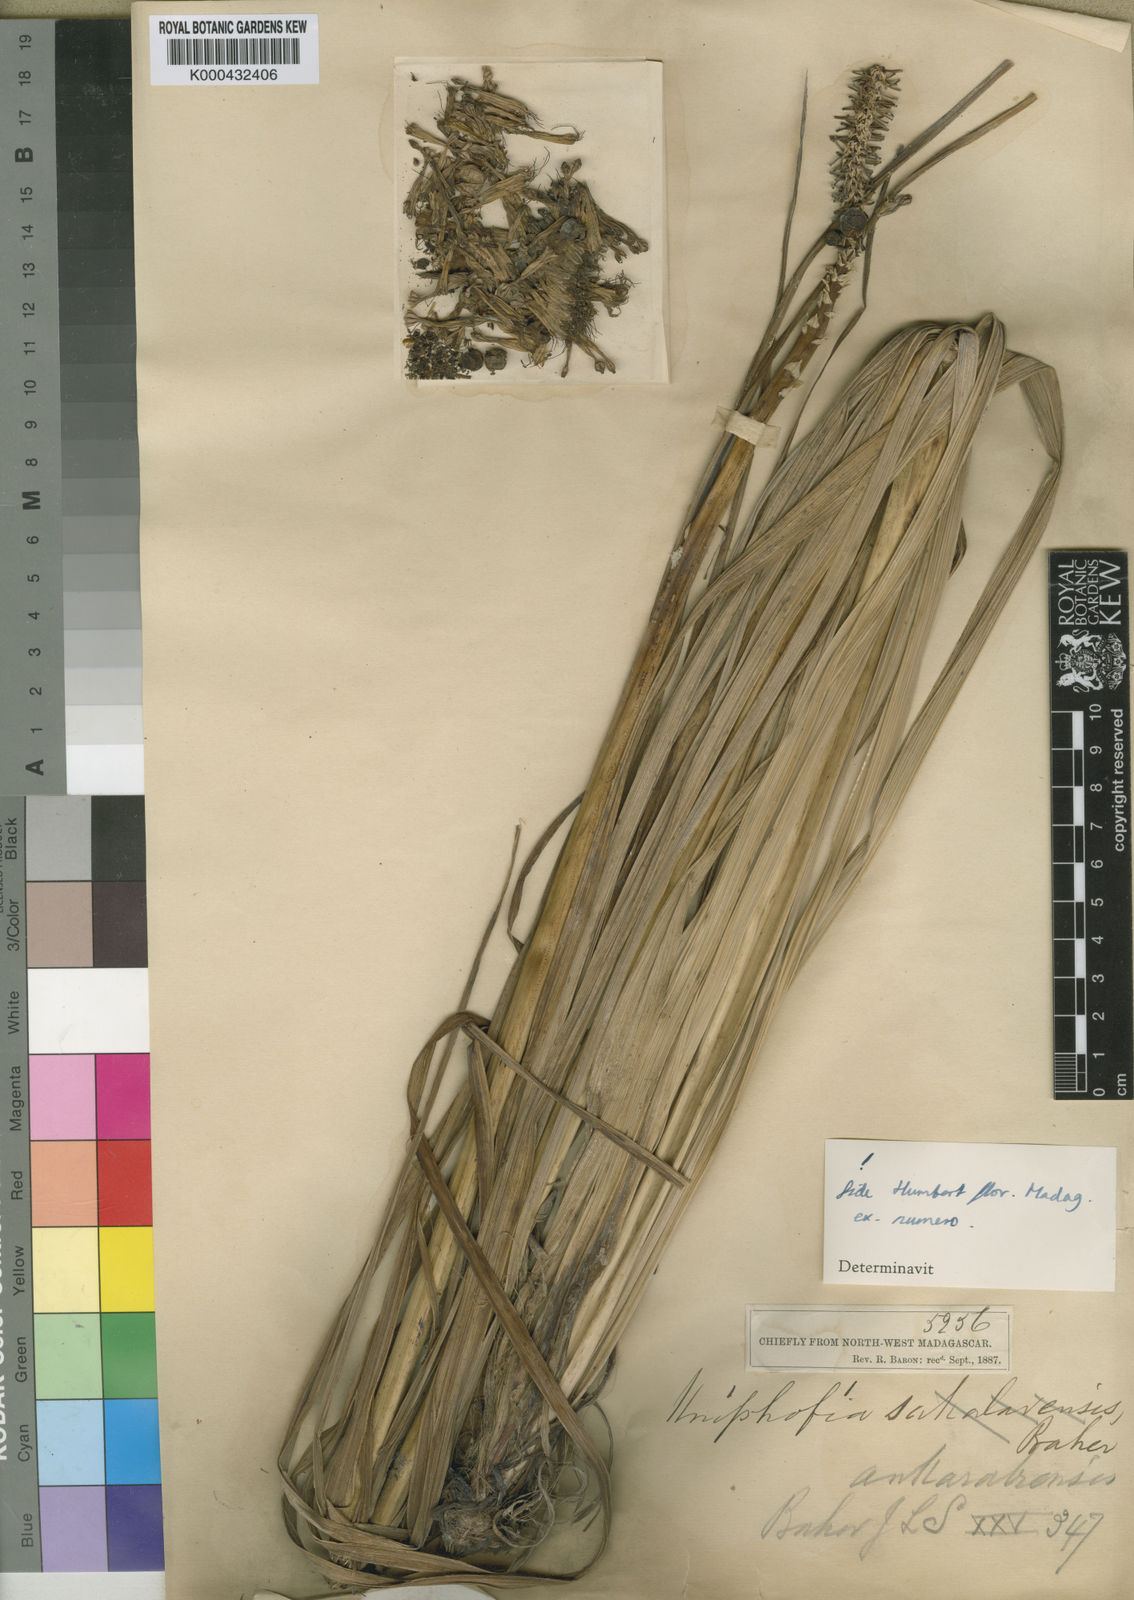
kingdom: Plantae
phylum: Tracheophyta
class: Liliopsida
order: Asparagales
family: Asphodelaceae
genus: Kniphofia
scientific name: Kniphofia ankaratrensis
